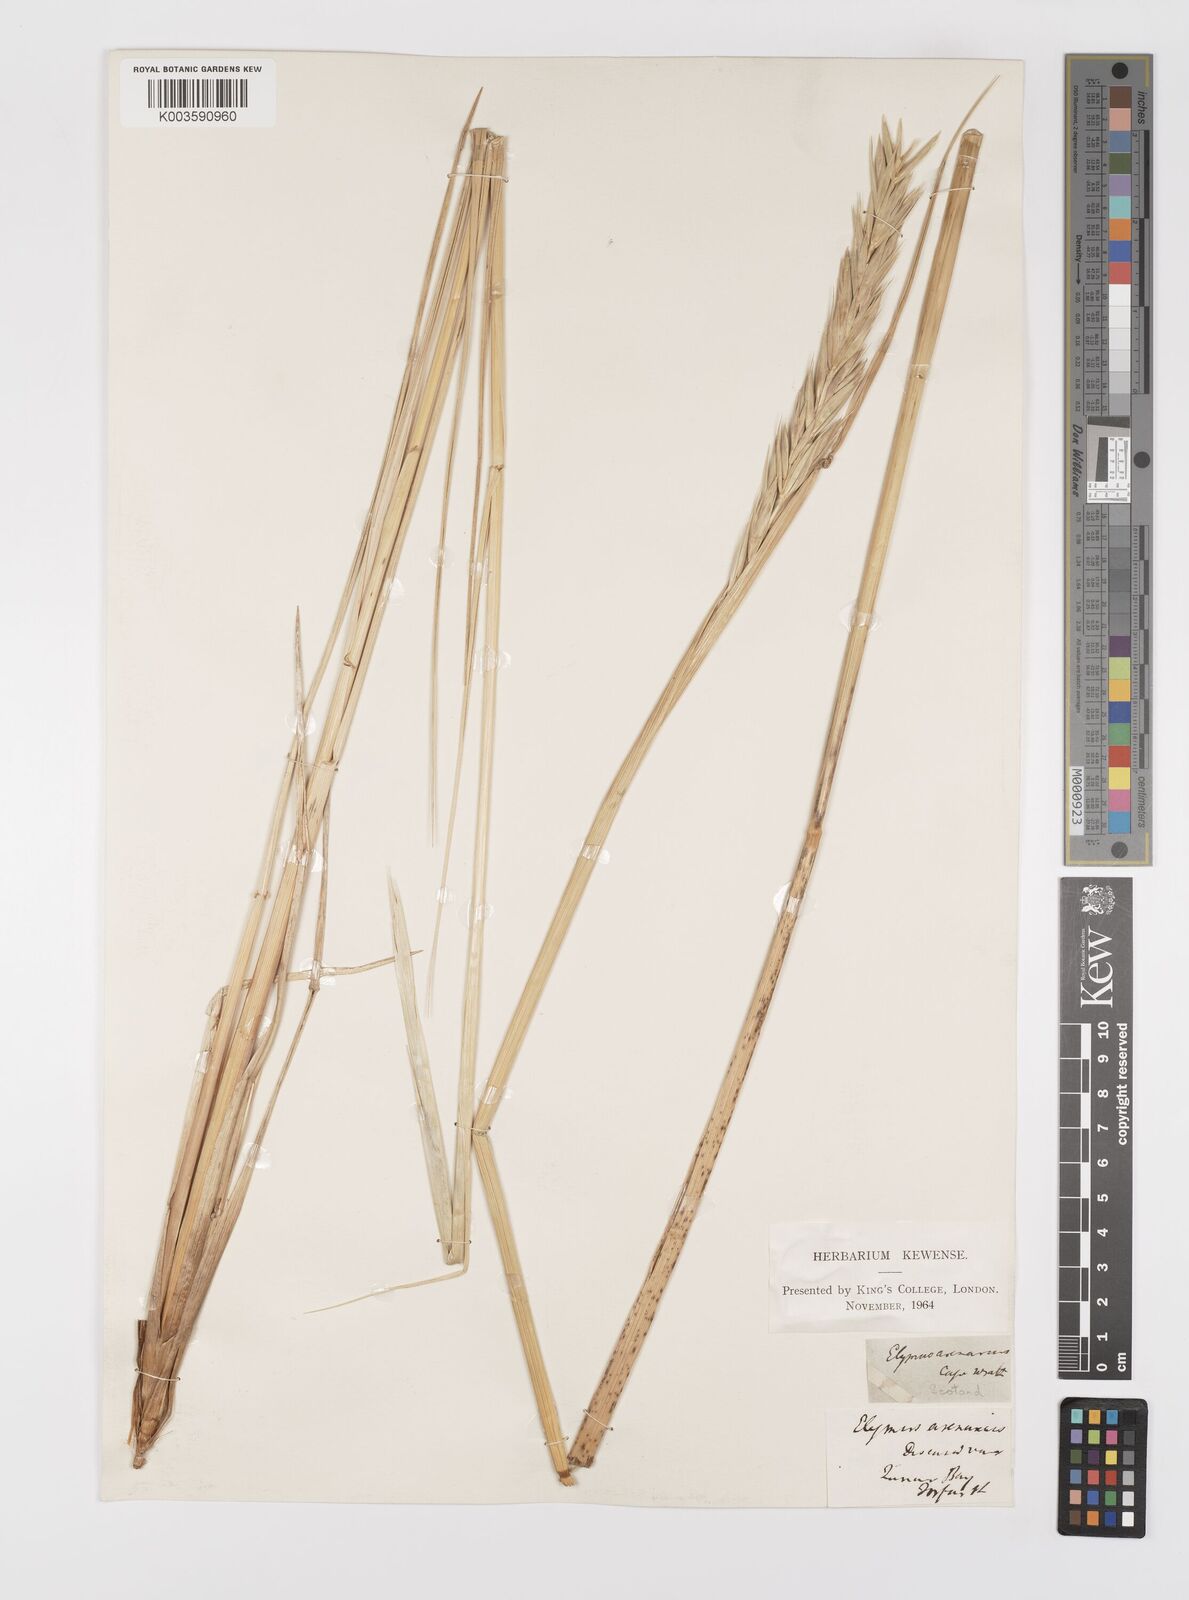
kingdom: Plantae
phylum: Tracheophyta
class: Liliopsida
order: Poales
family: Poaceae
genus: Leymus
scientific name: Leymus arenarius
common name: Lyme-grass
